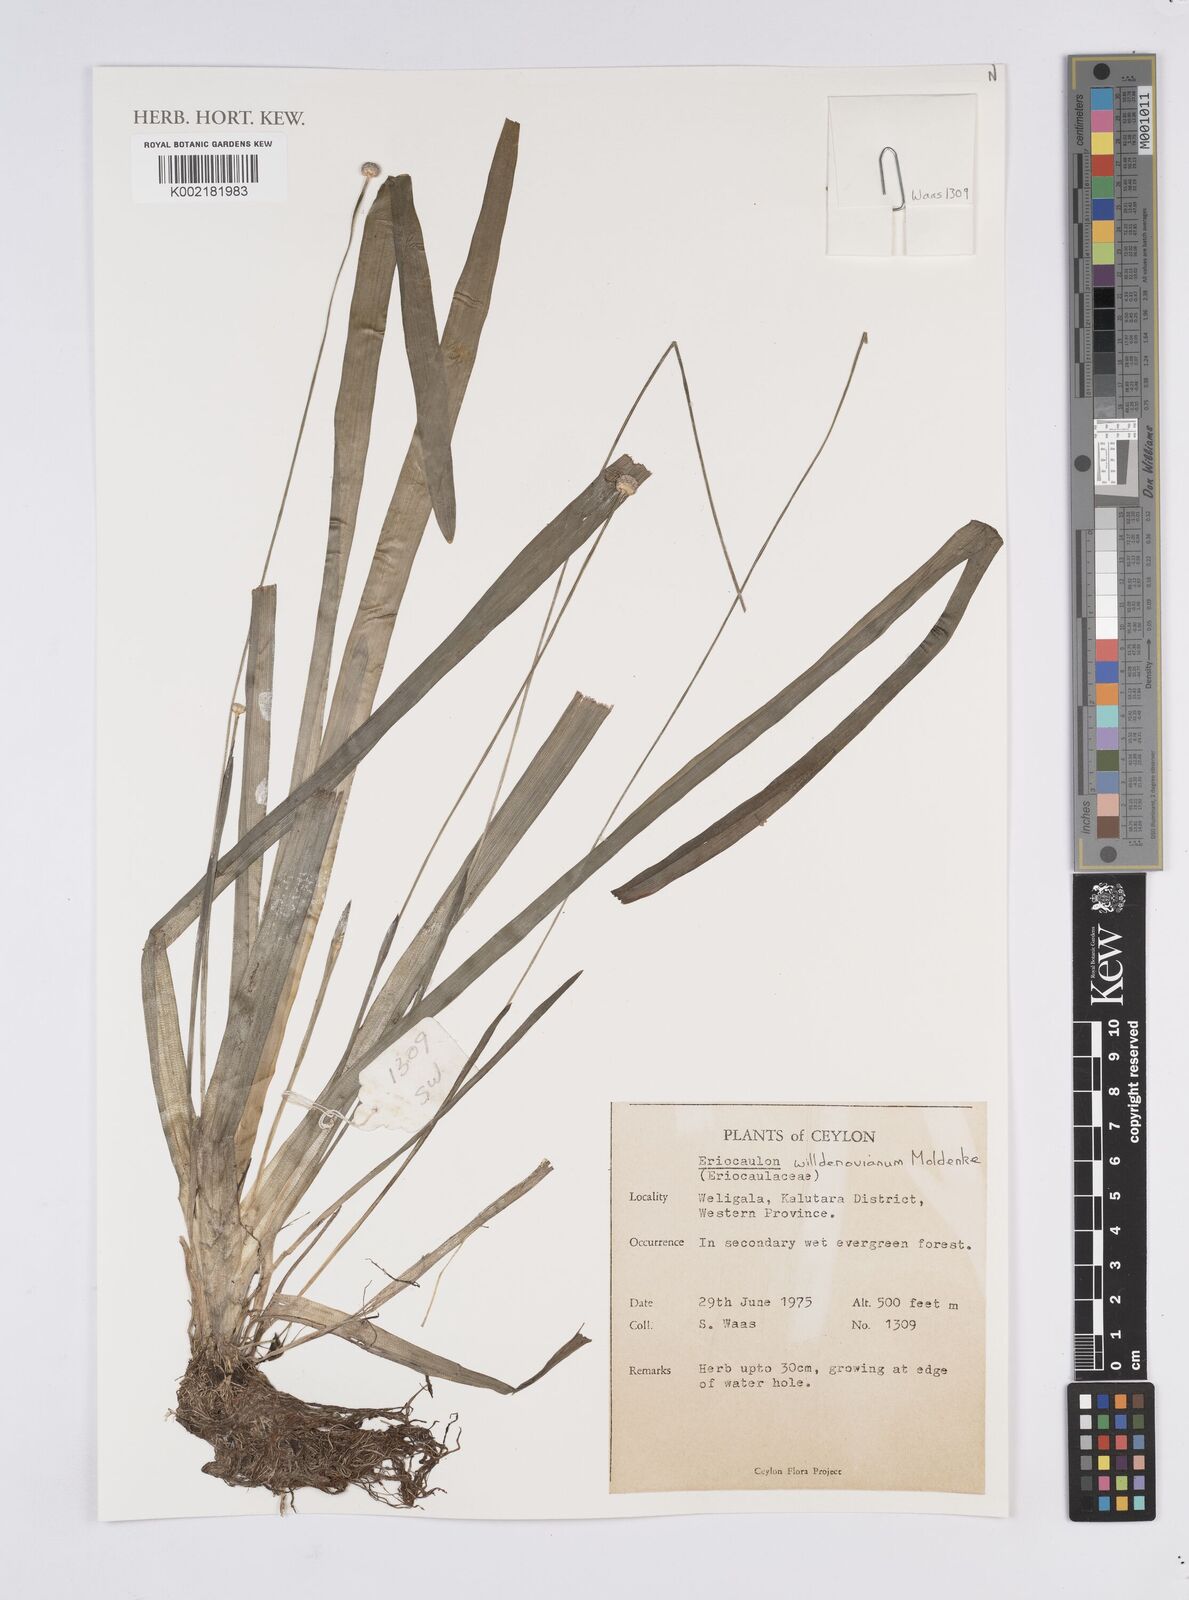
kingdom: Plantae
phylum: Tracheophyta
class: Liliopsida
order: Poales
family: Eriocaulaceae
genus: Eriocaulon
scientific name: Eriocaulon willdenovianum
